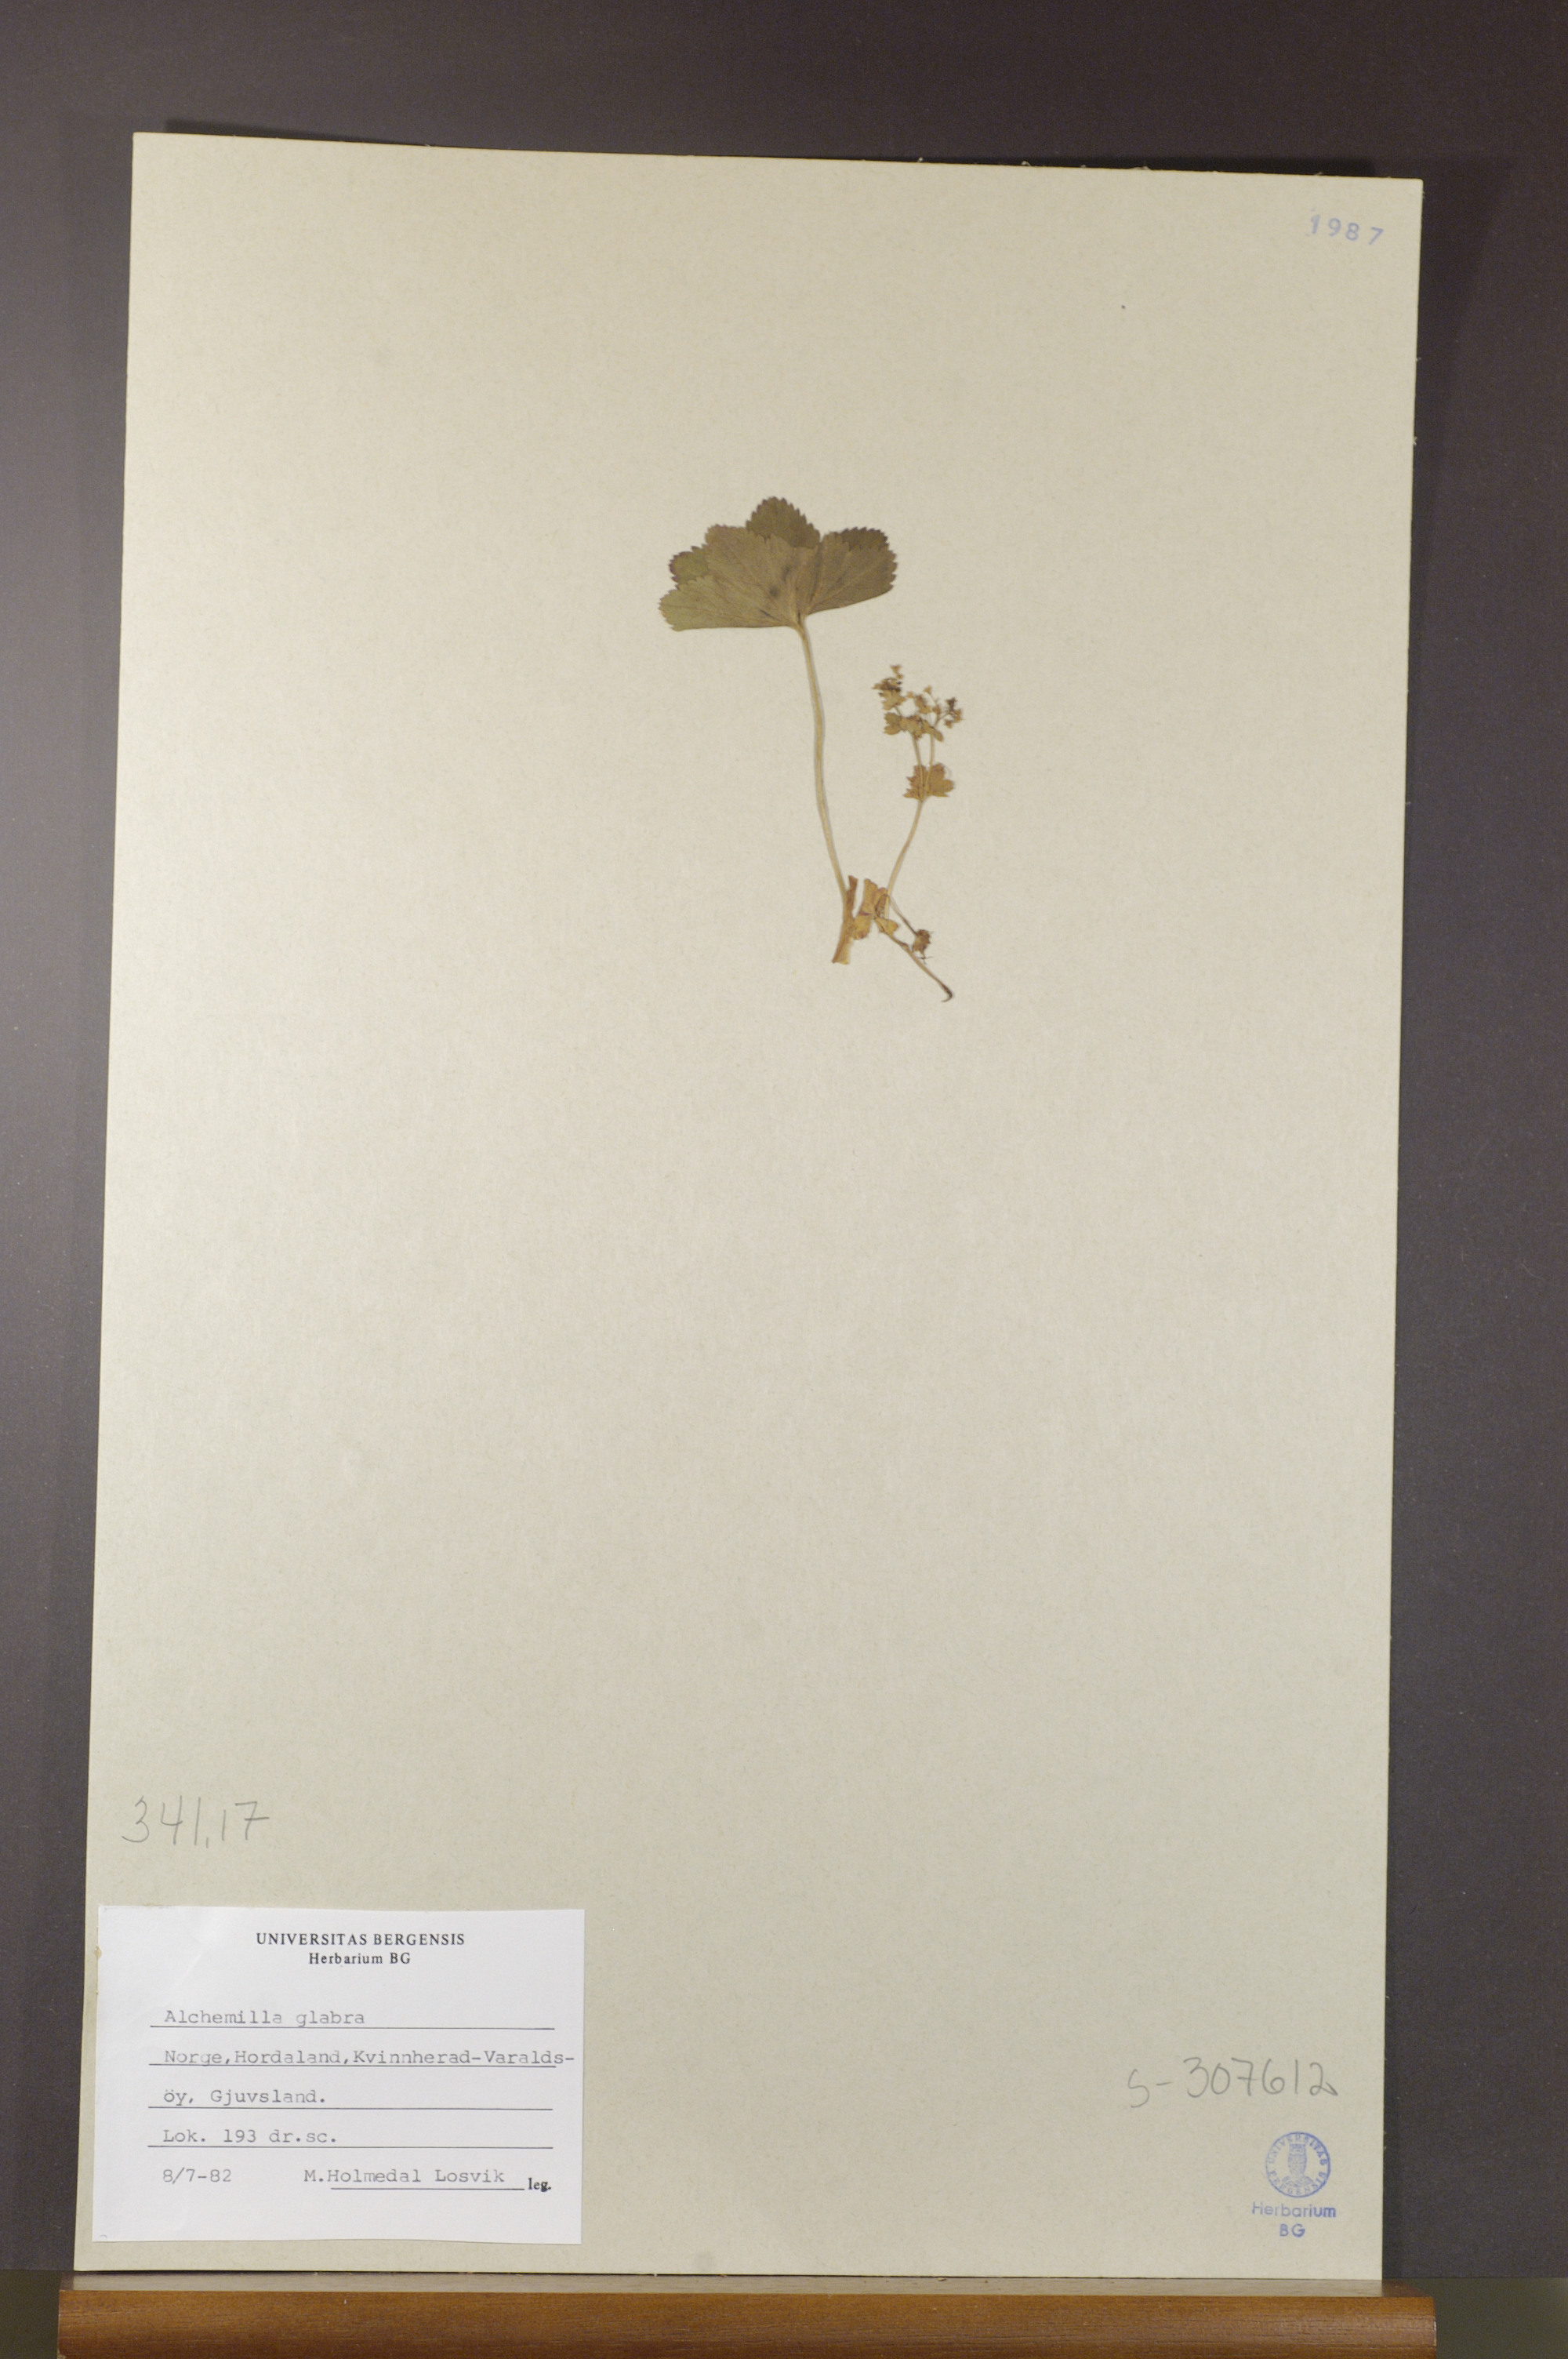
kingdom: Plantae
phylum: Tracheophyta
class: Magnoliopsida
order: Rosales
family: Rosaceae
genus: Alchemilla
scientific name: Alchemilla glabra
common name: Smooth lady's-mantle
